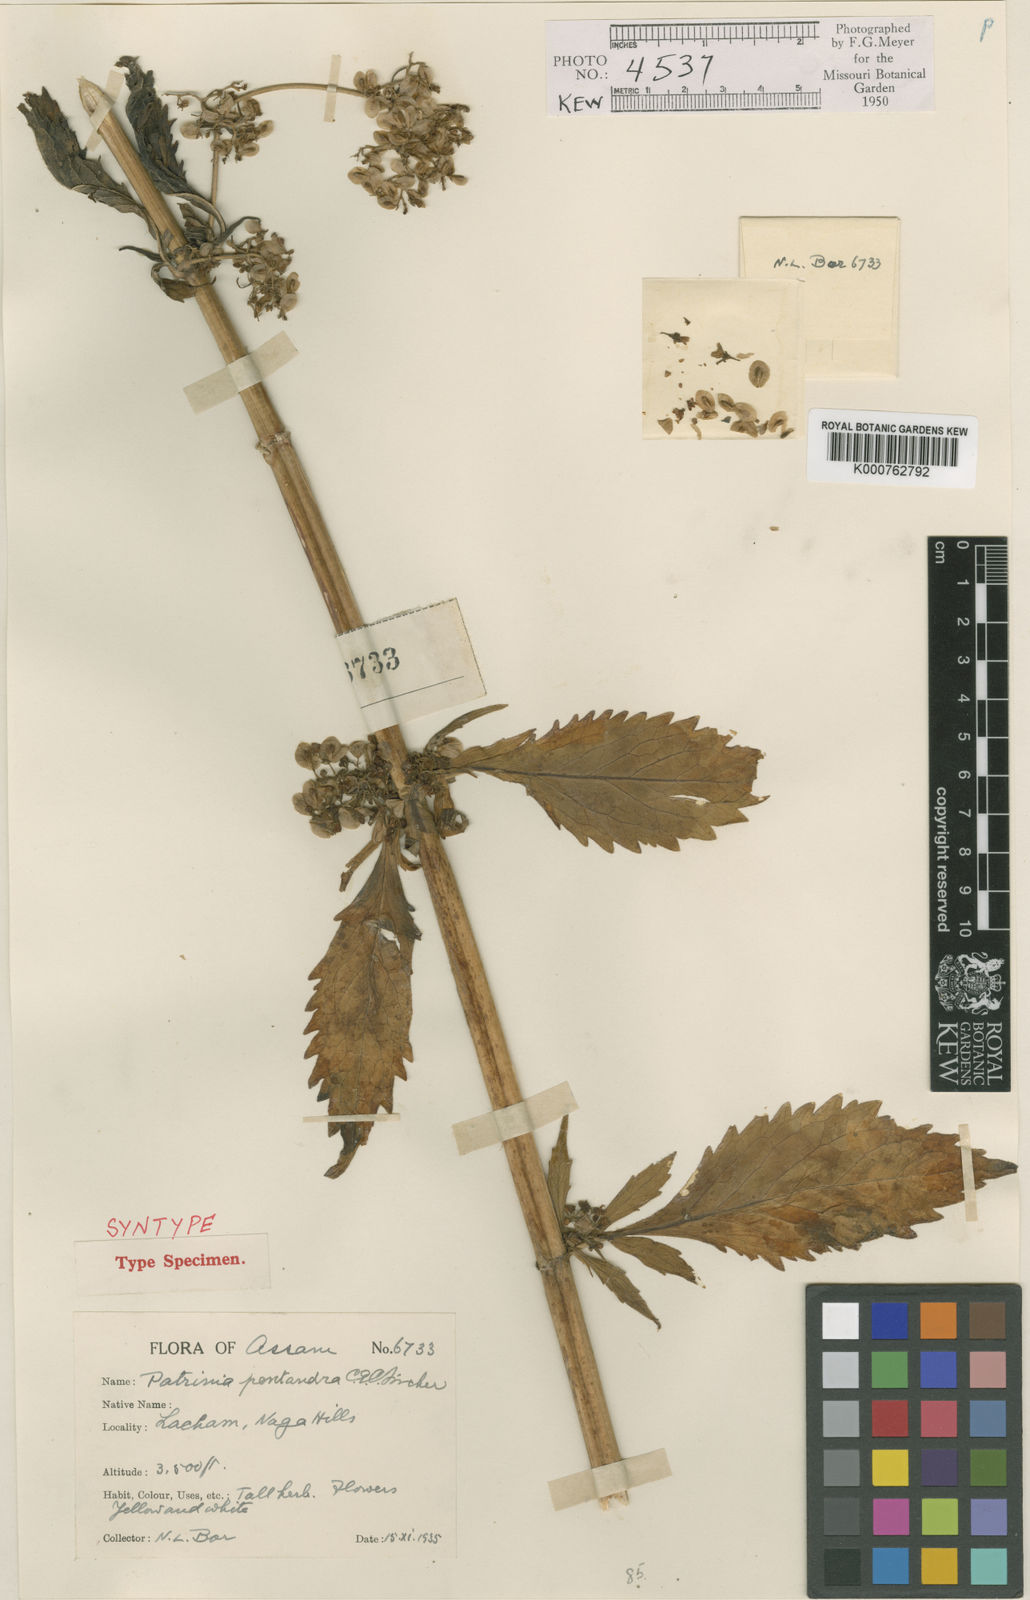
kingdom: Plantae
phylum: Tracheophyta
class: Magnoliopsida
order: Dipsacales
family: Caprifoliaceae
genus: Patrinia
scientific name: Patrinia monandra
